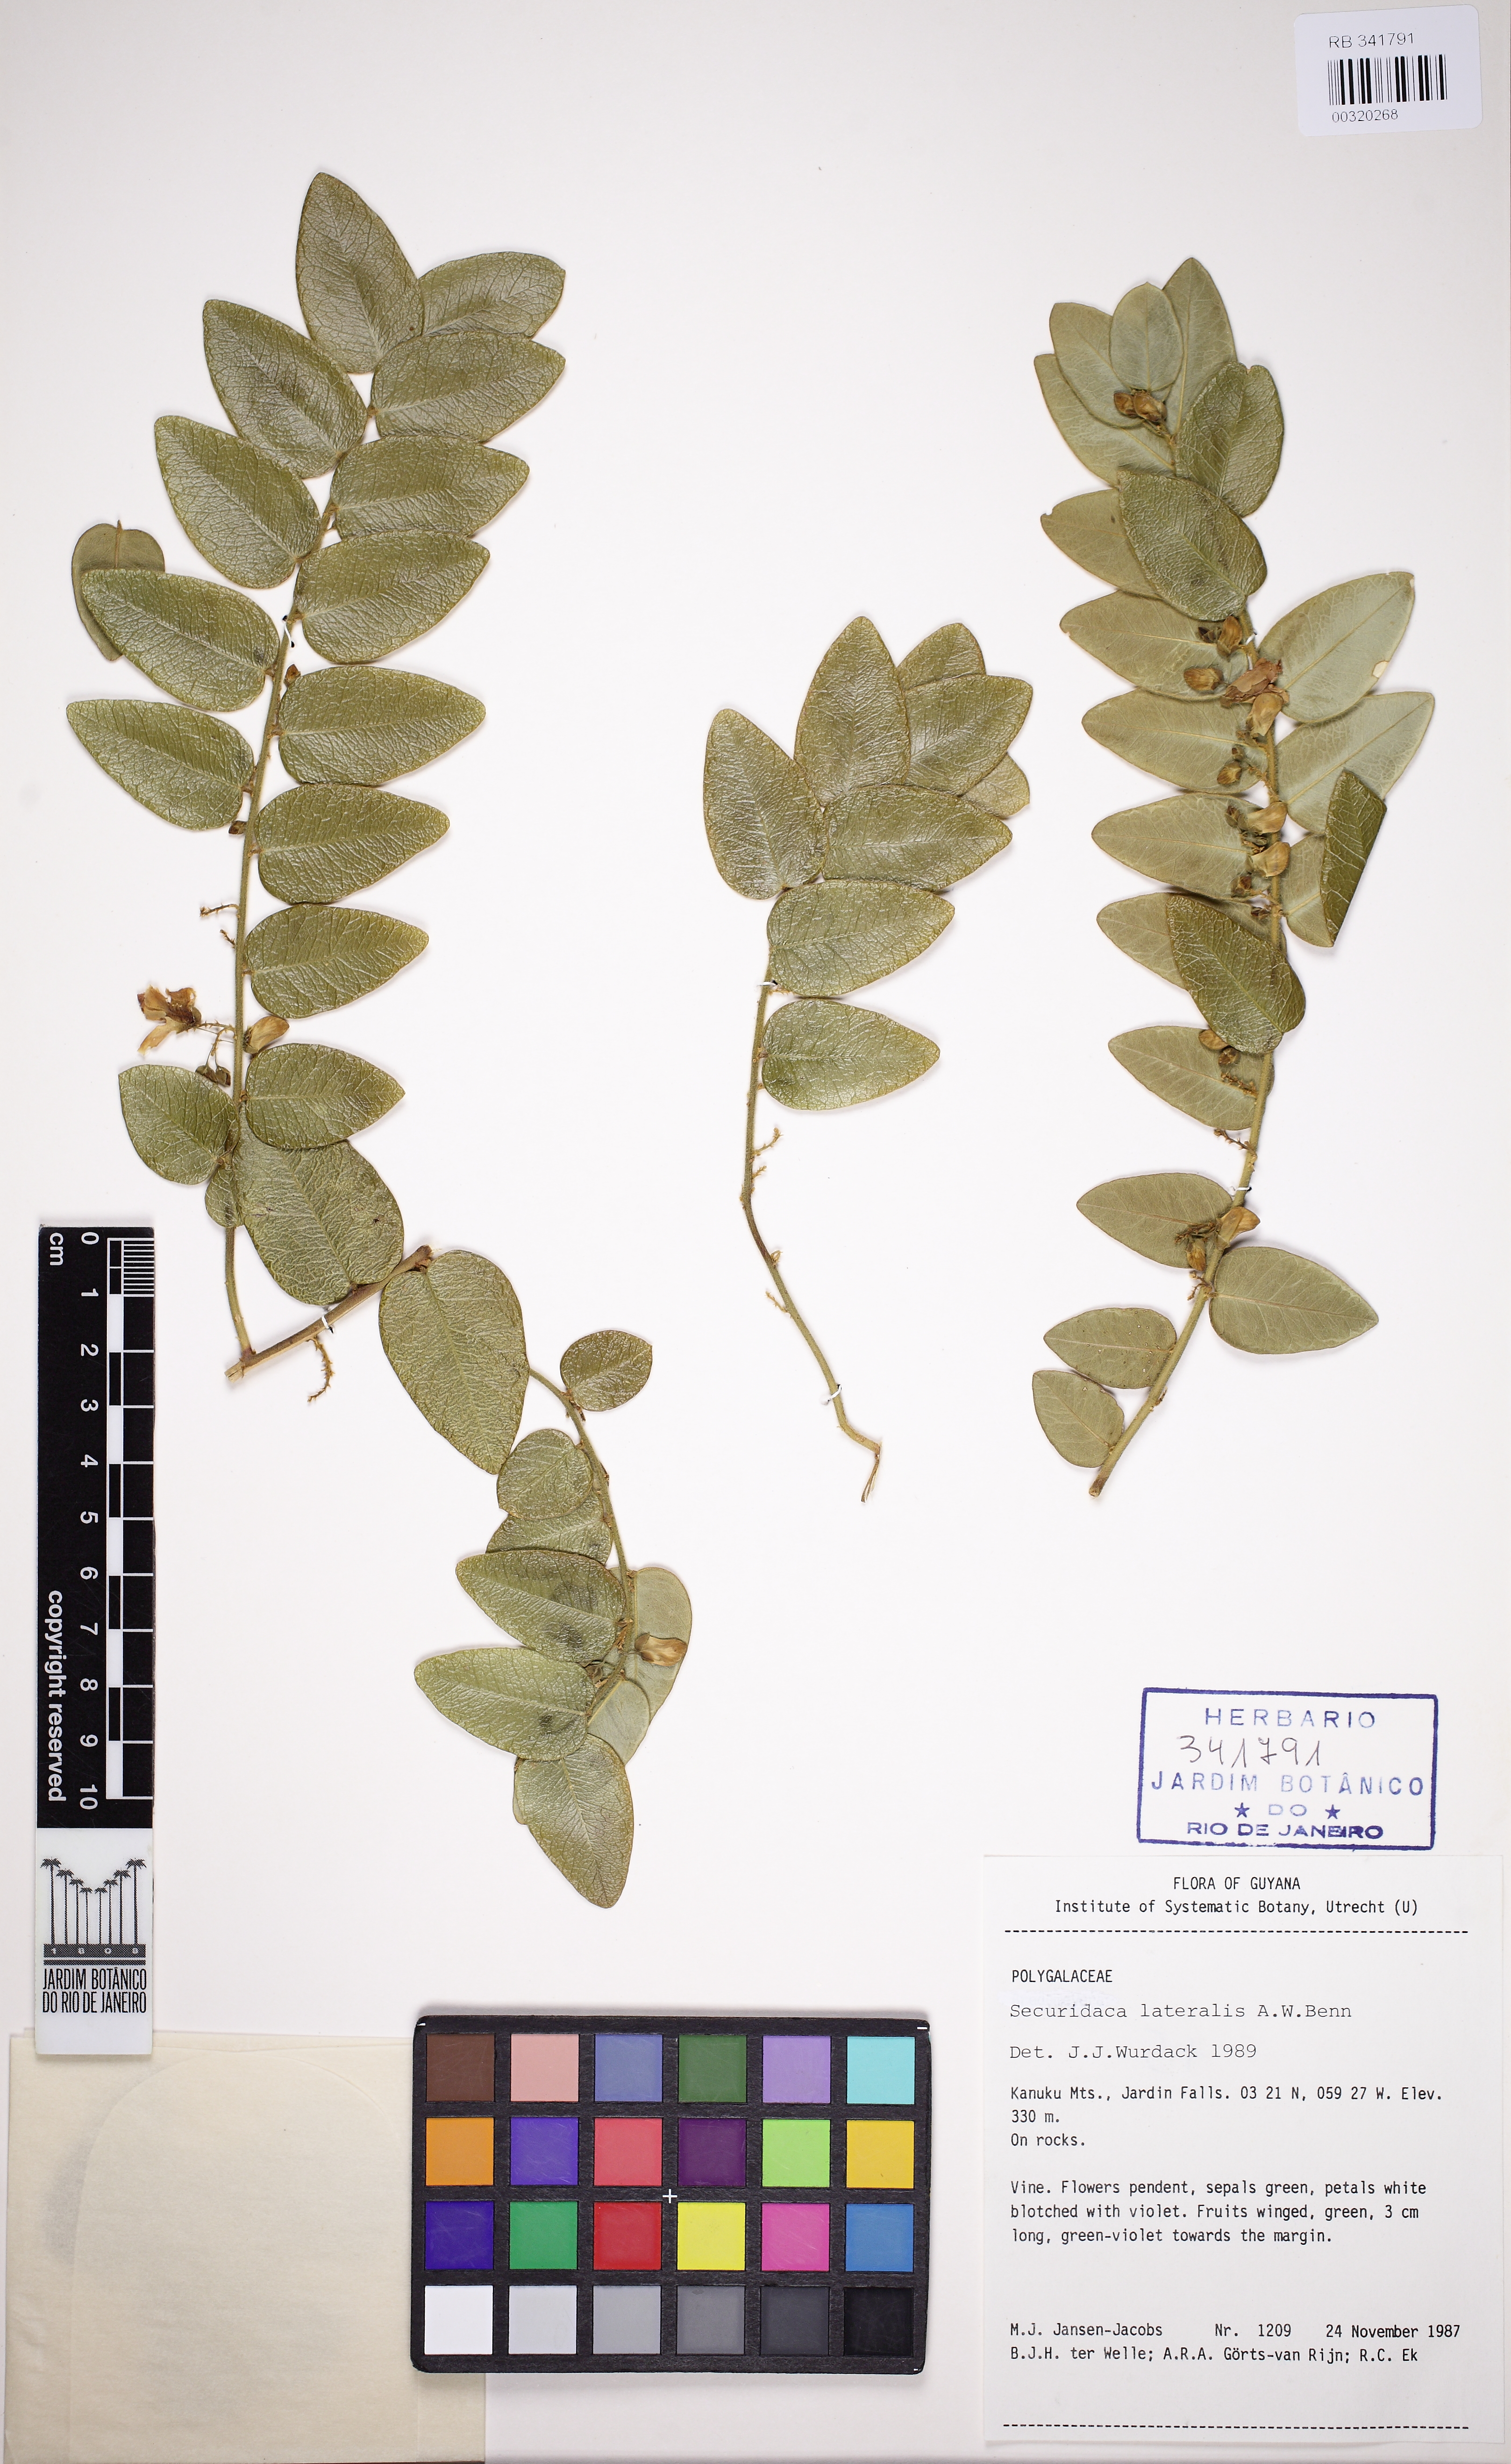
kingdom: Plantae
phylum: Tracheophyta
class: Magnoliopsida
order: Fabales
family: Polygalaceae
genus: Securidaca
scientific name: Securidaca lateralis
